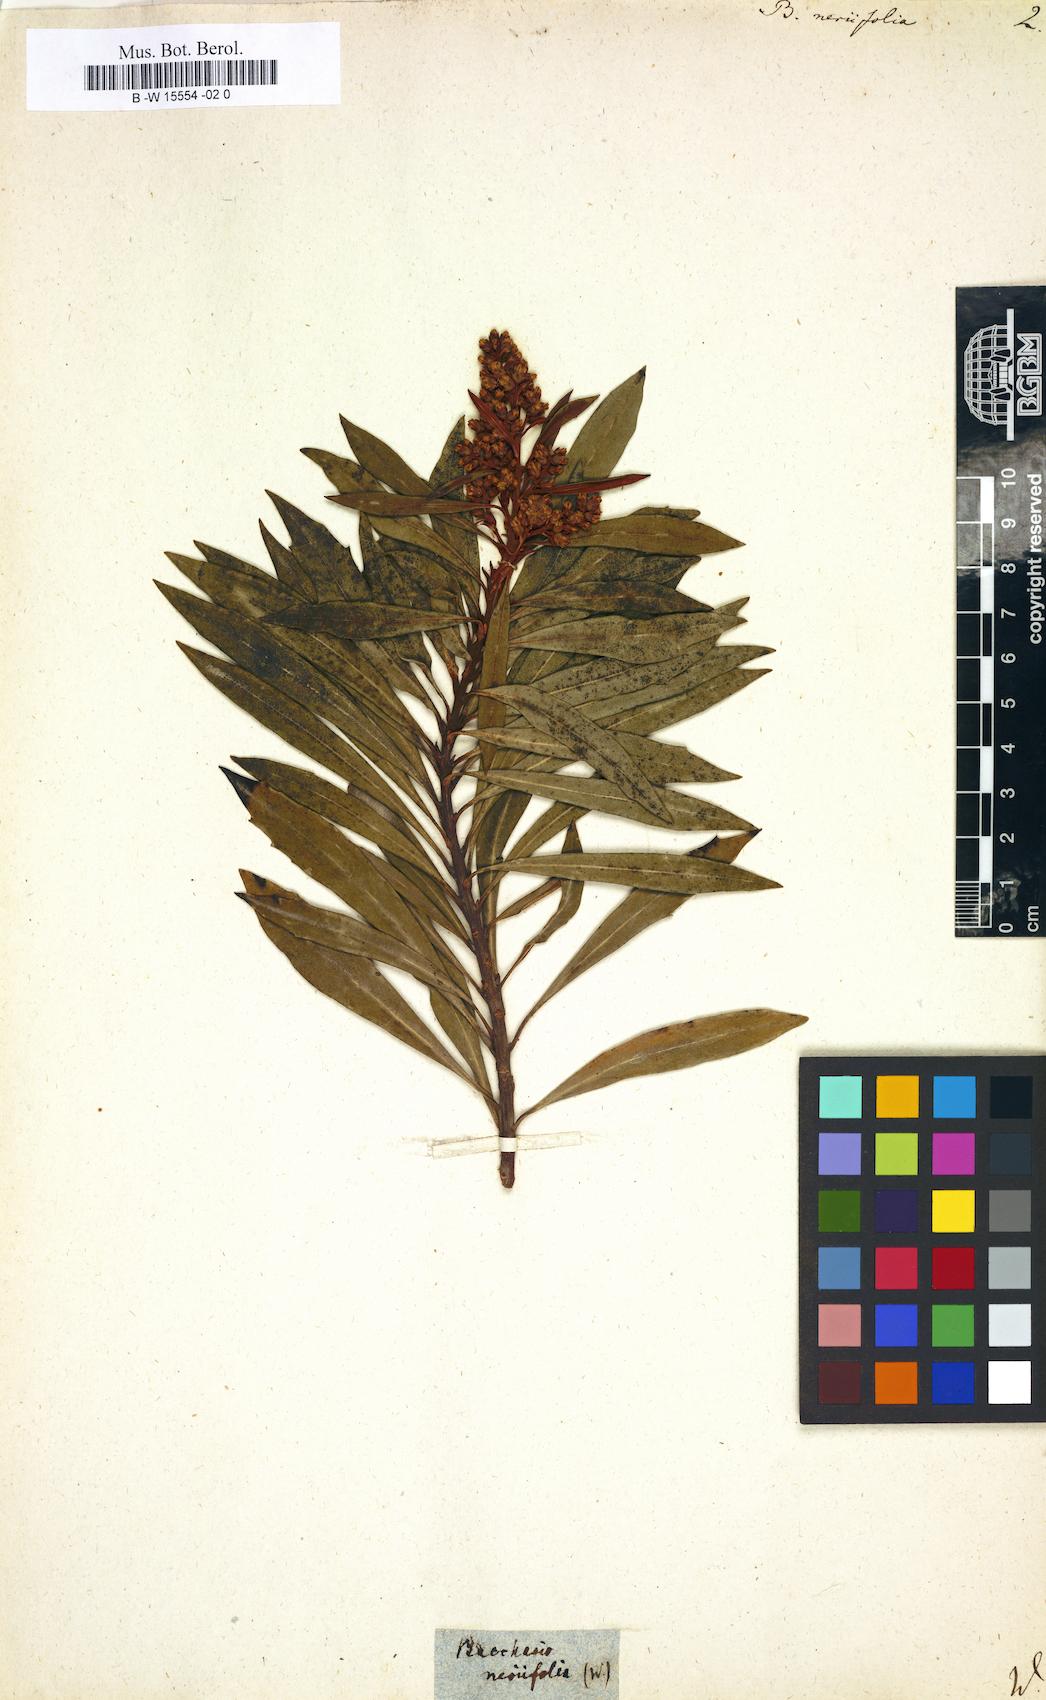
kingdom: Plantae
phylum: Tracheophyta
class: Magnoliopsida
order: Asterales
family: Asteraceae
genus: Brachylaena
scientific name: Brachylaena neriifolia
